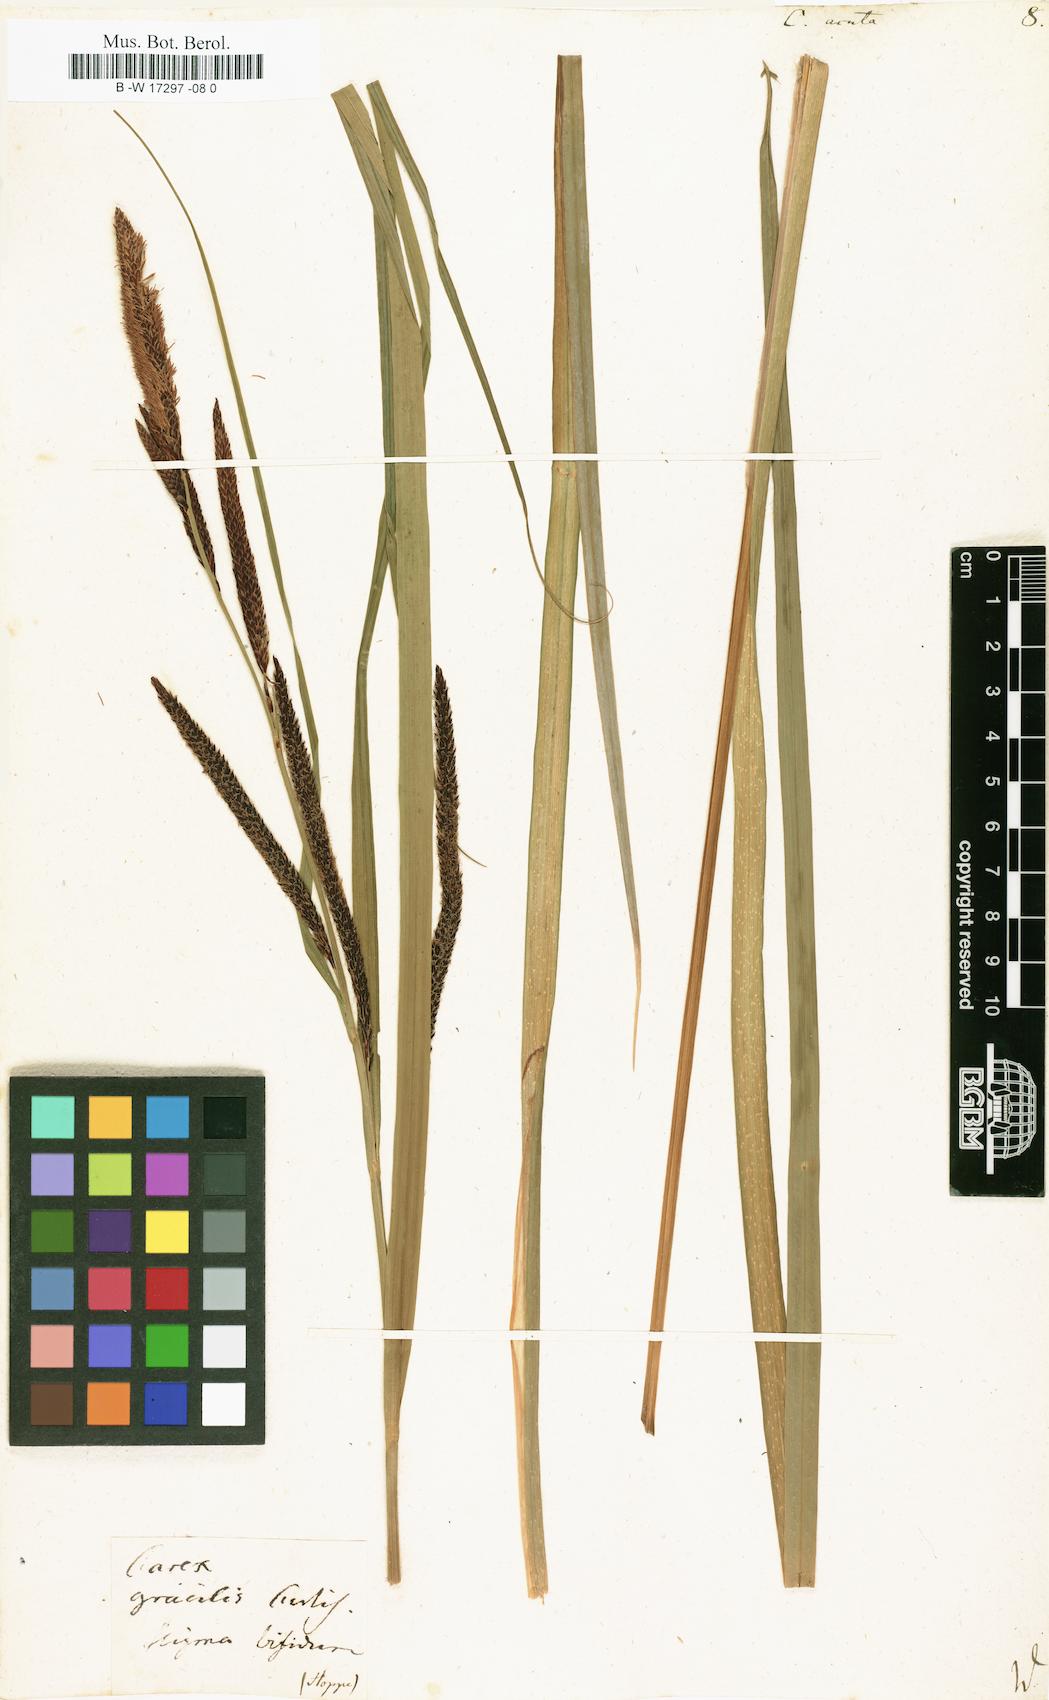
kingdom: Plantae
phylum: Tracheophyta
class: Liliopsida
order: Poales
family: Cyperaceae
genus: Carex
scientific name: Carex acuta
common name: Slender tufted-sedge
